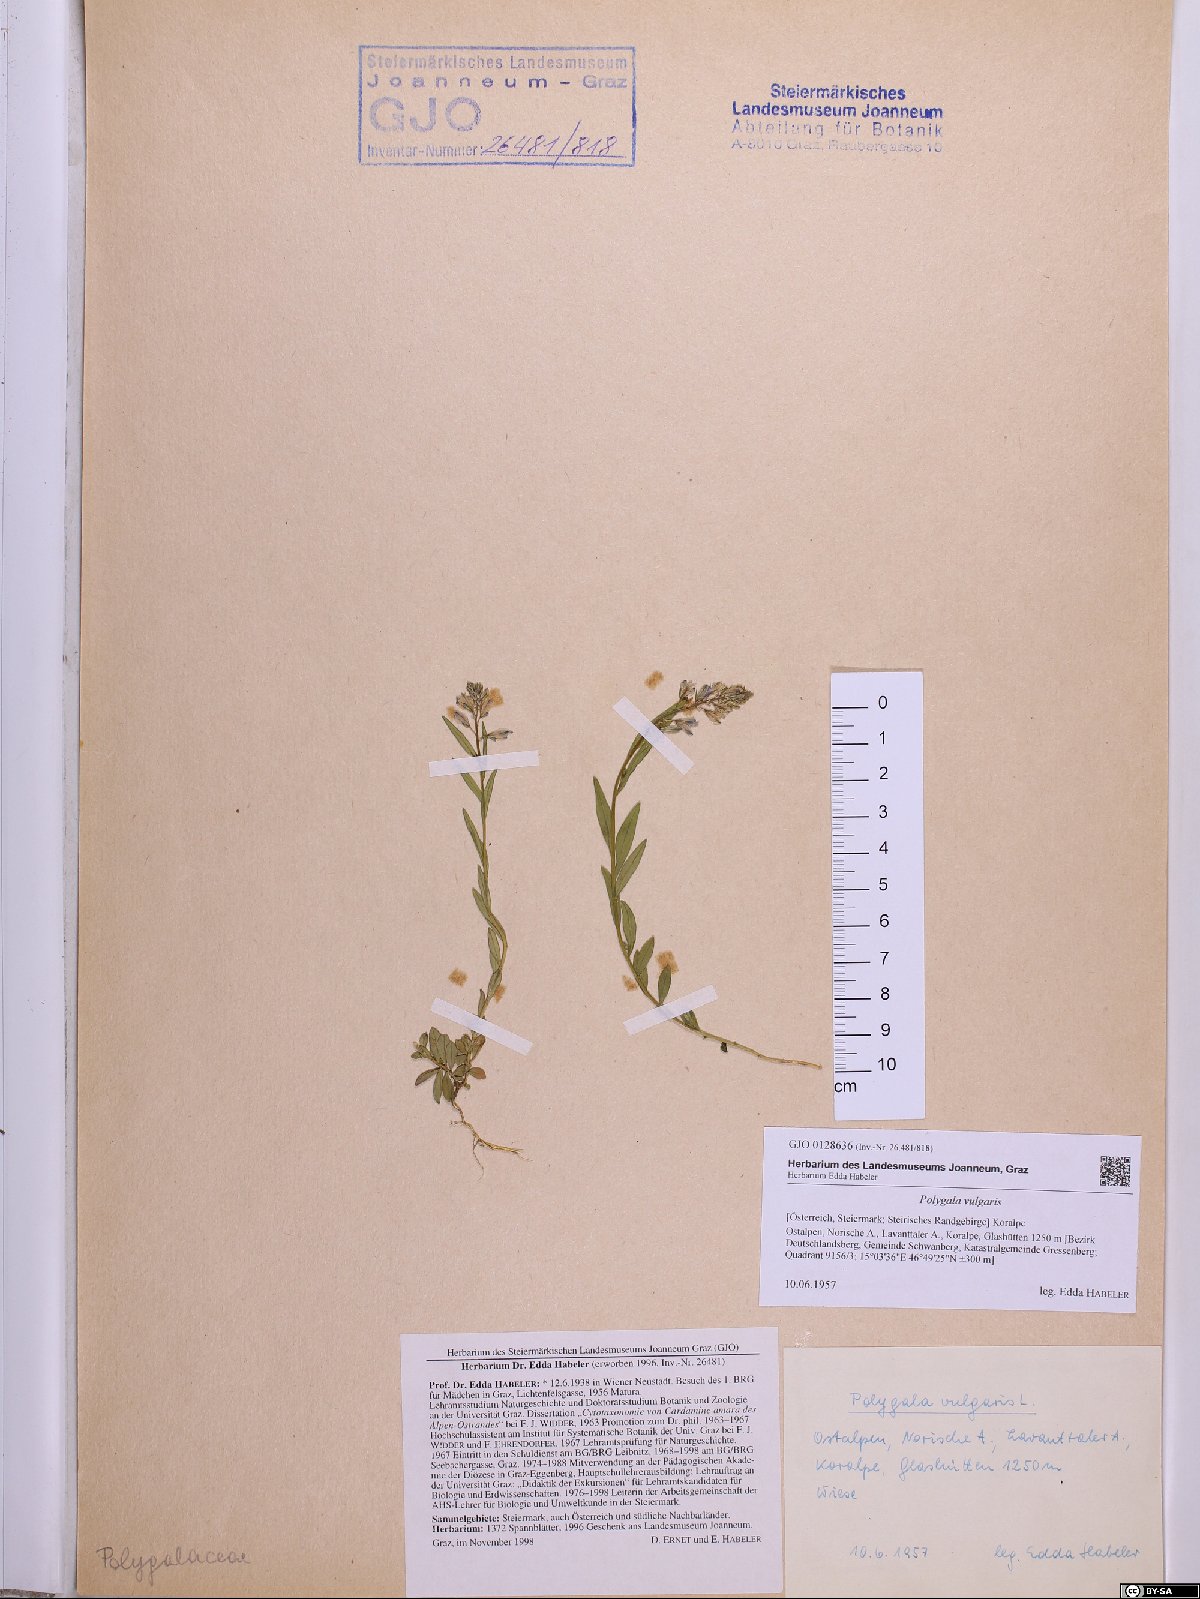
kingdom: Plantae
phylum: Tracheophyta
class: Magnoliopsida
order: Fabales
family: Polygalaceae
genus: Polygala
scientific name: Polygala vulgaris
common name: Common milkwort
